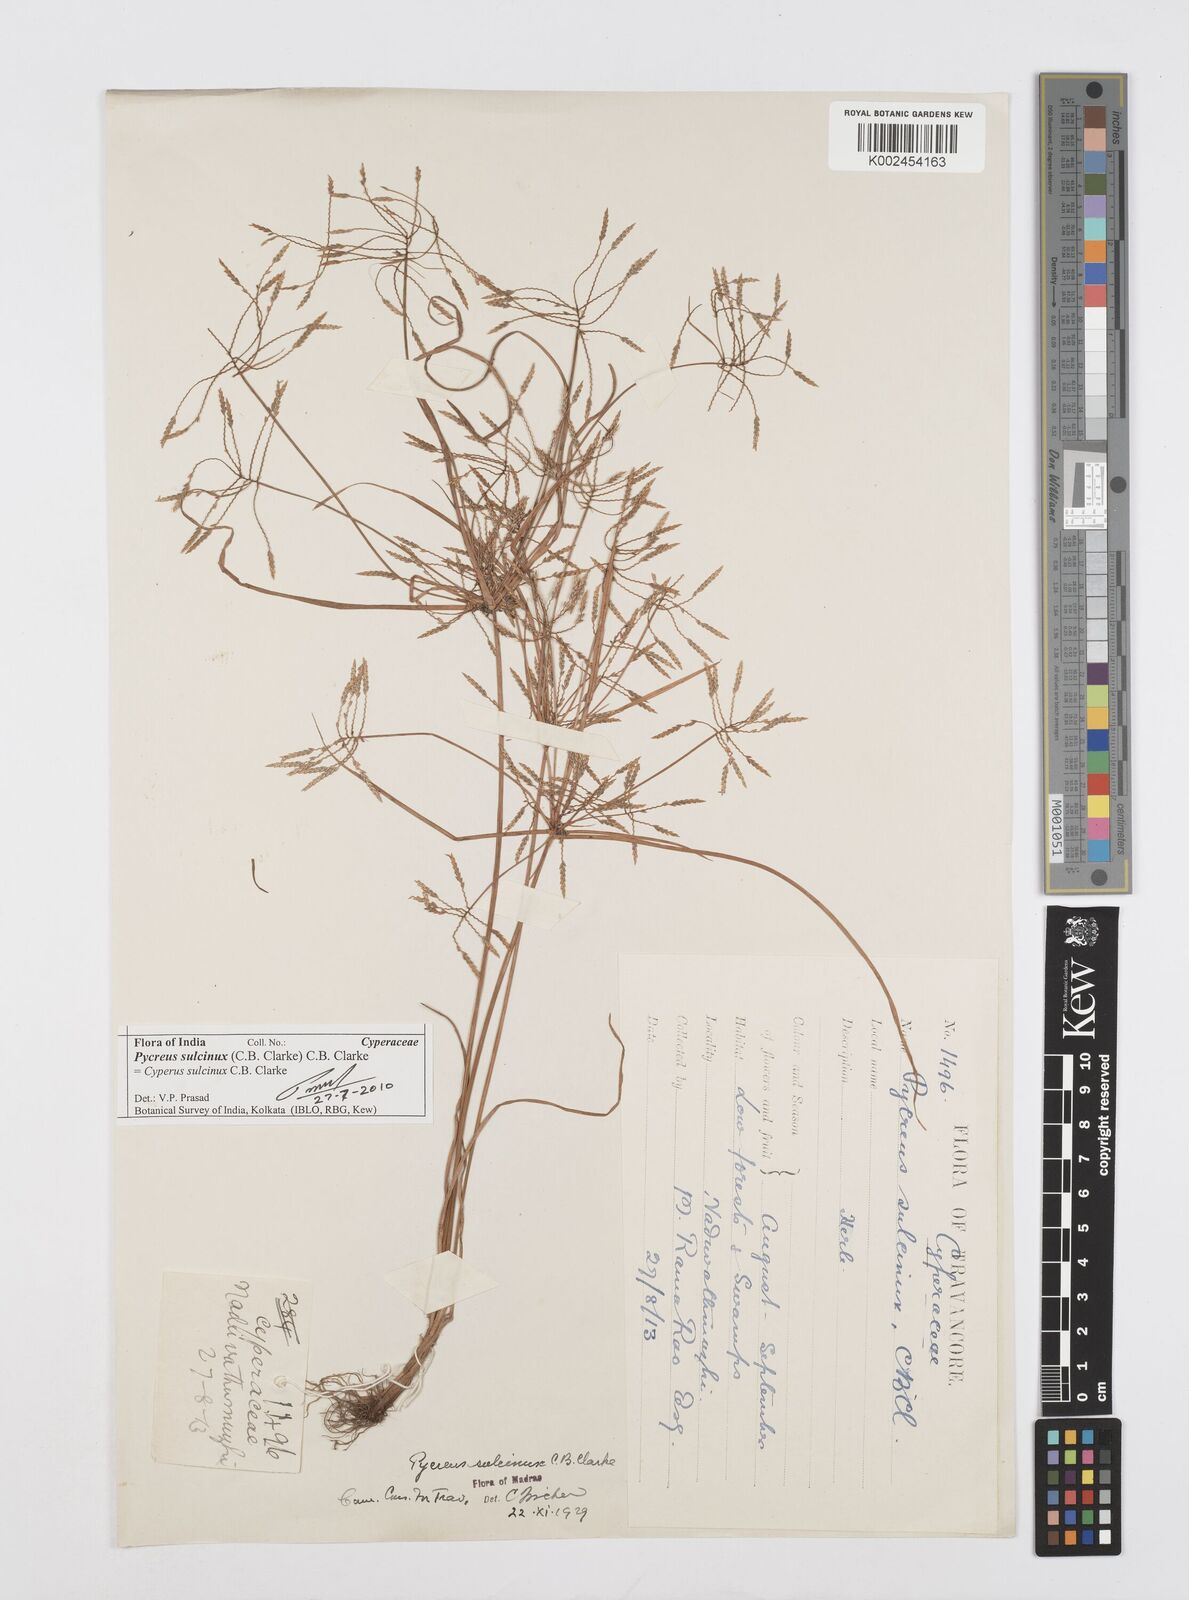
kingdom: Plantae
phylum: Tracheophyta
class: Liliopsida
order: Poales
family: Cyperaceae
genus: Cyperus
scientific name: Cyperus sulcinux
